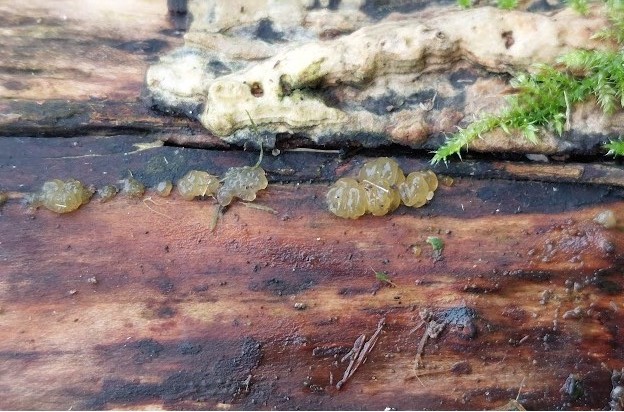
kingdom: Fungi
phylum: Basidiomycota
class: Dacrymycetes
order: Dacrymycetales
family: Dacrymycetaceae
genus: Dacrymyces
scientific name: Dacrymyces lacrymalis
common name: rynket tåresvamp
